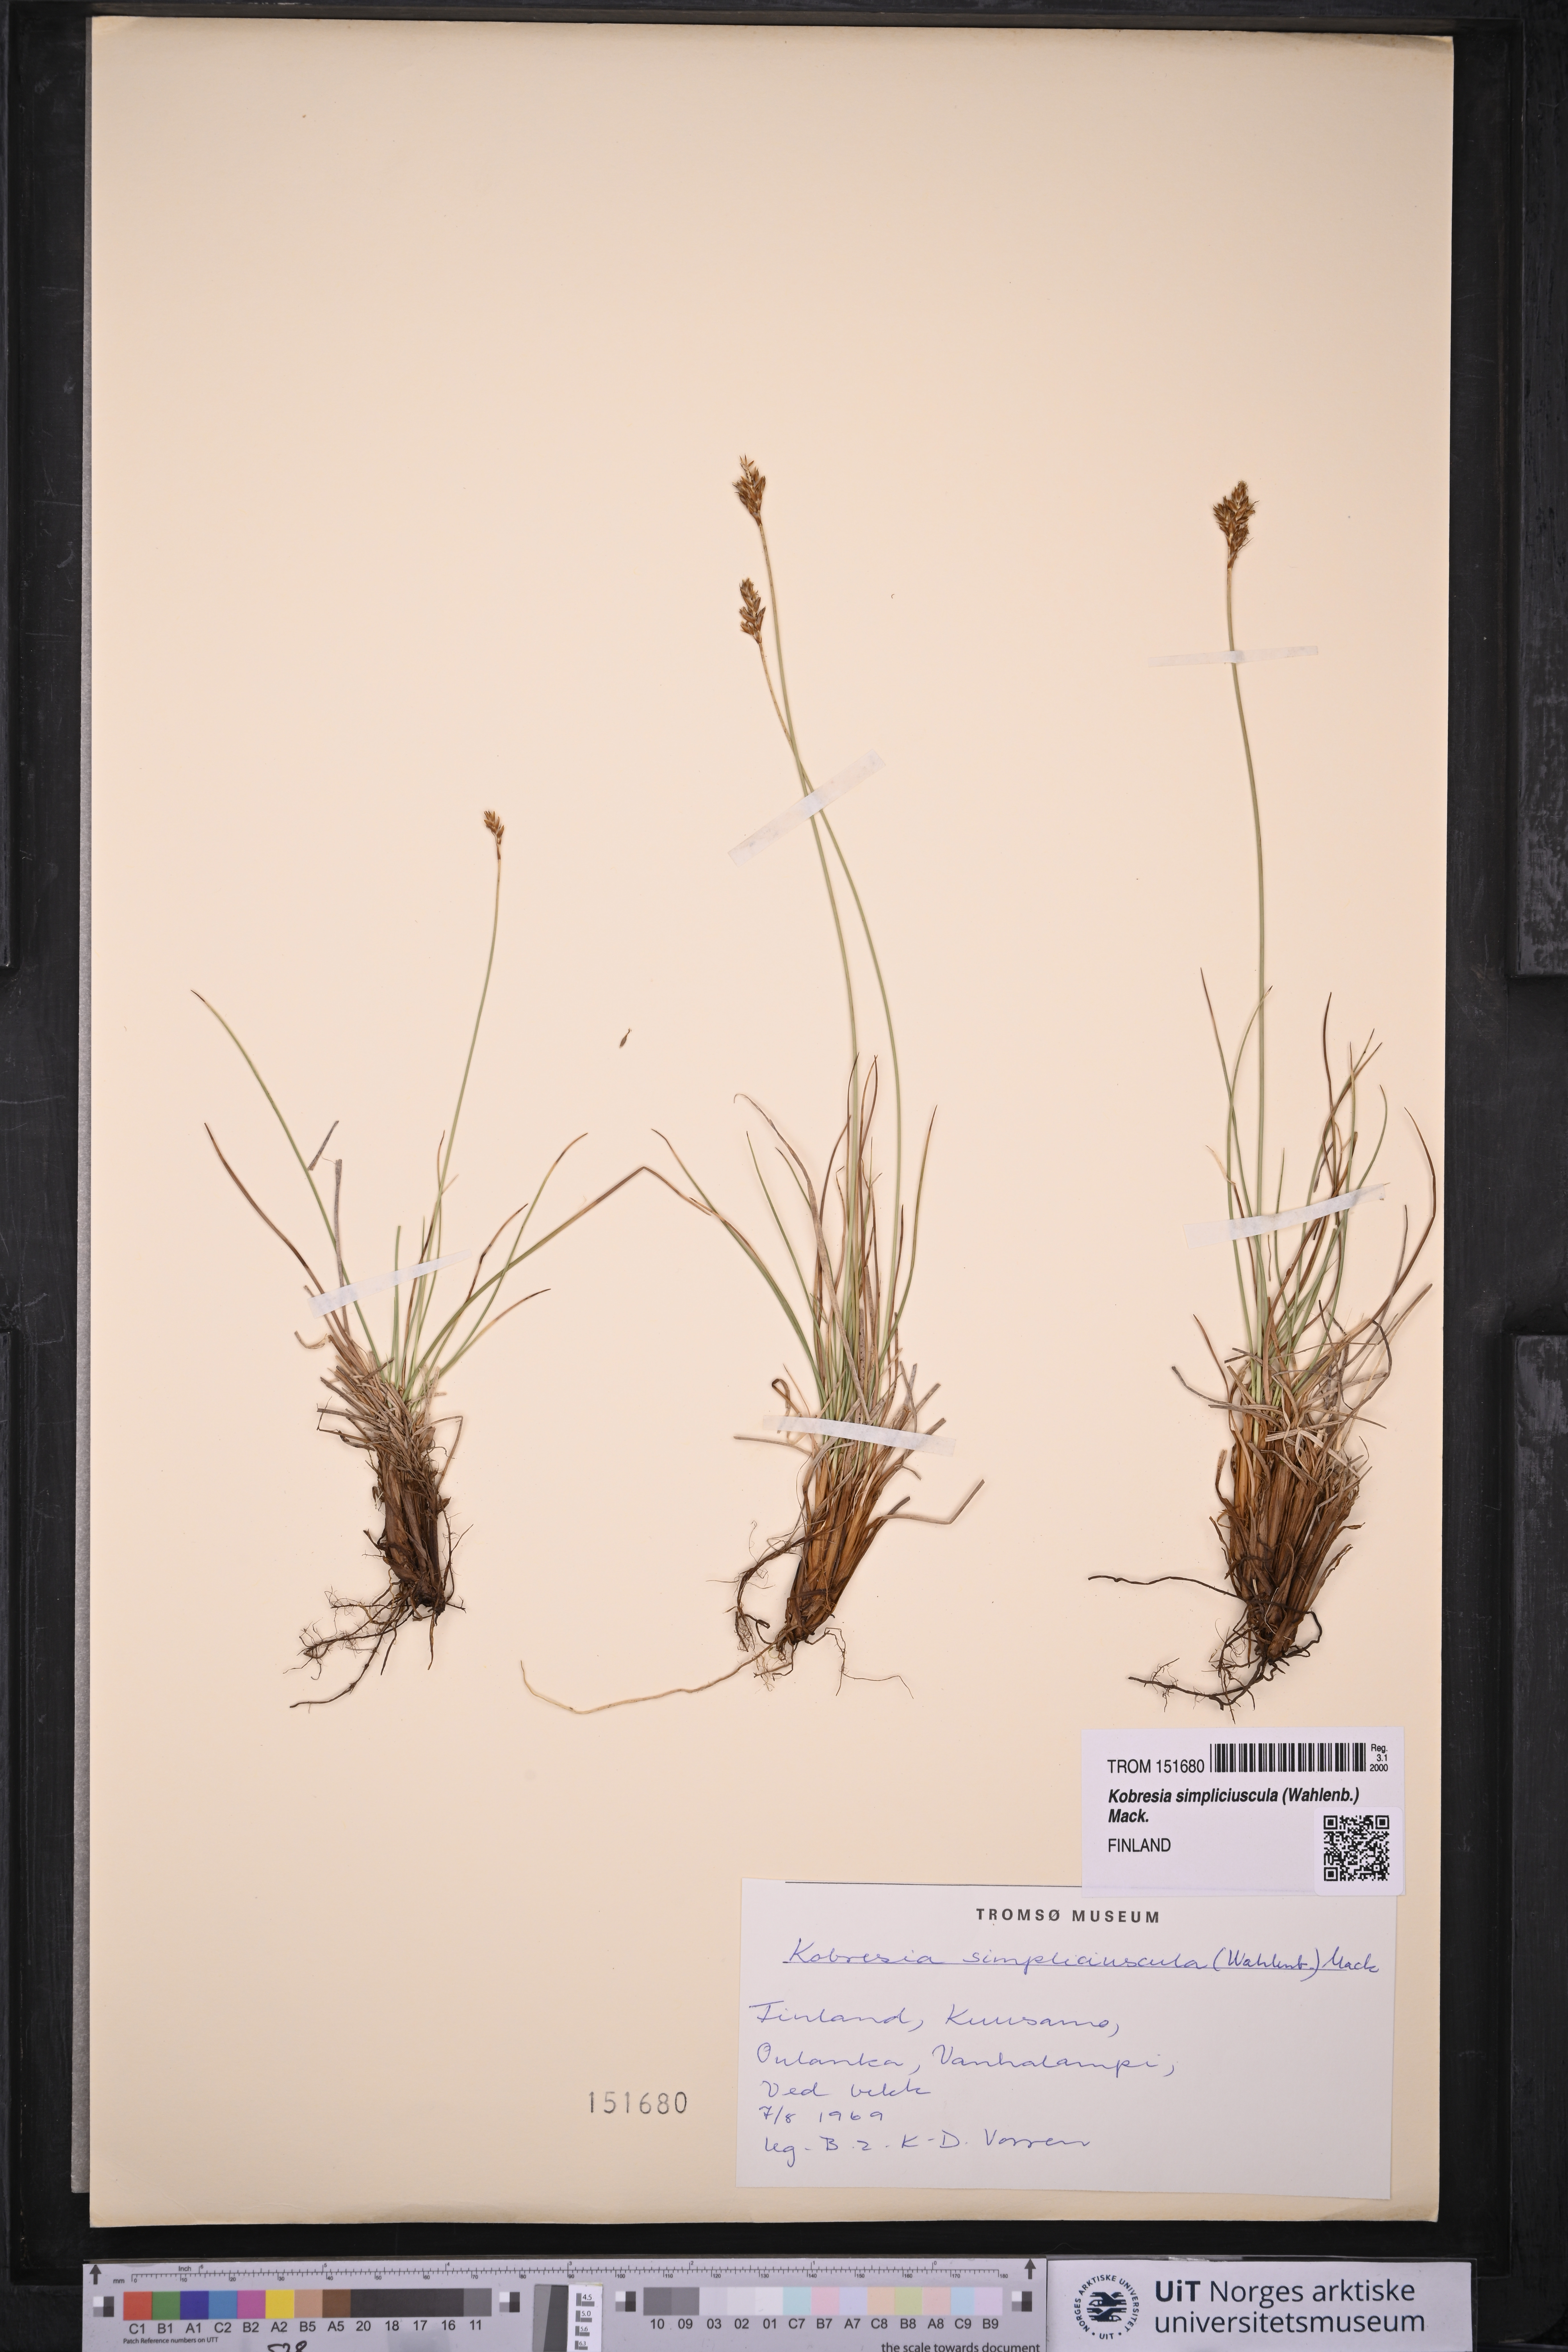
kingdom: Plantae
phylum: Tracheophyta
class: Liliopsida
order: Poales
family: Cyperaceae
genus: Carex
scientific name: Carex simpliciuscula
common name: Simple bog sedge
